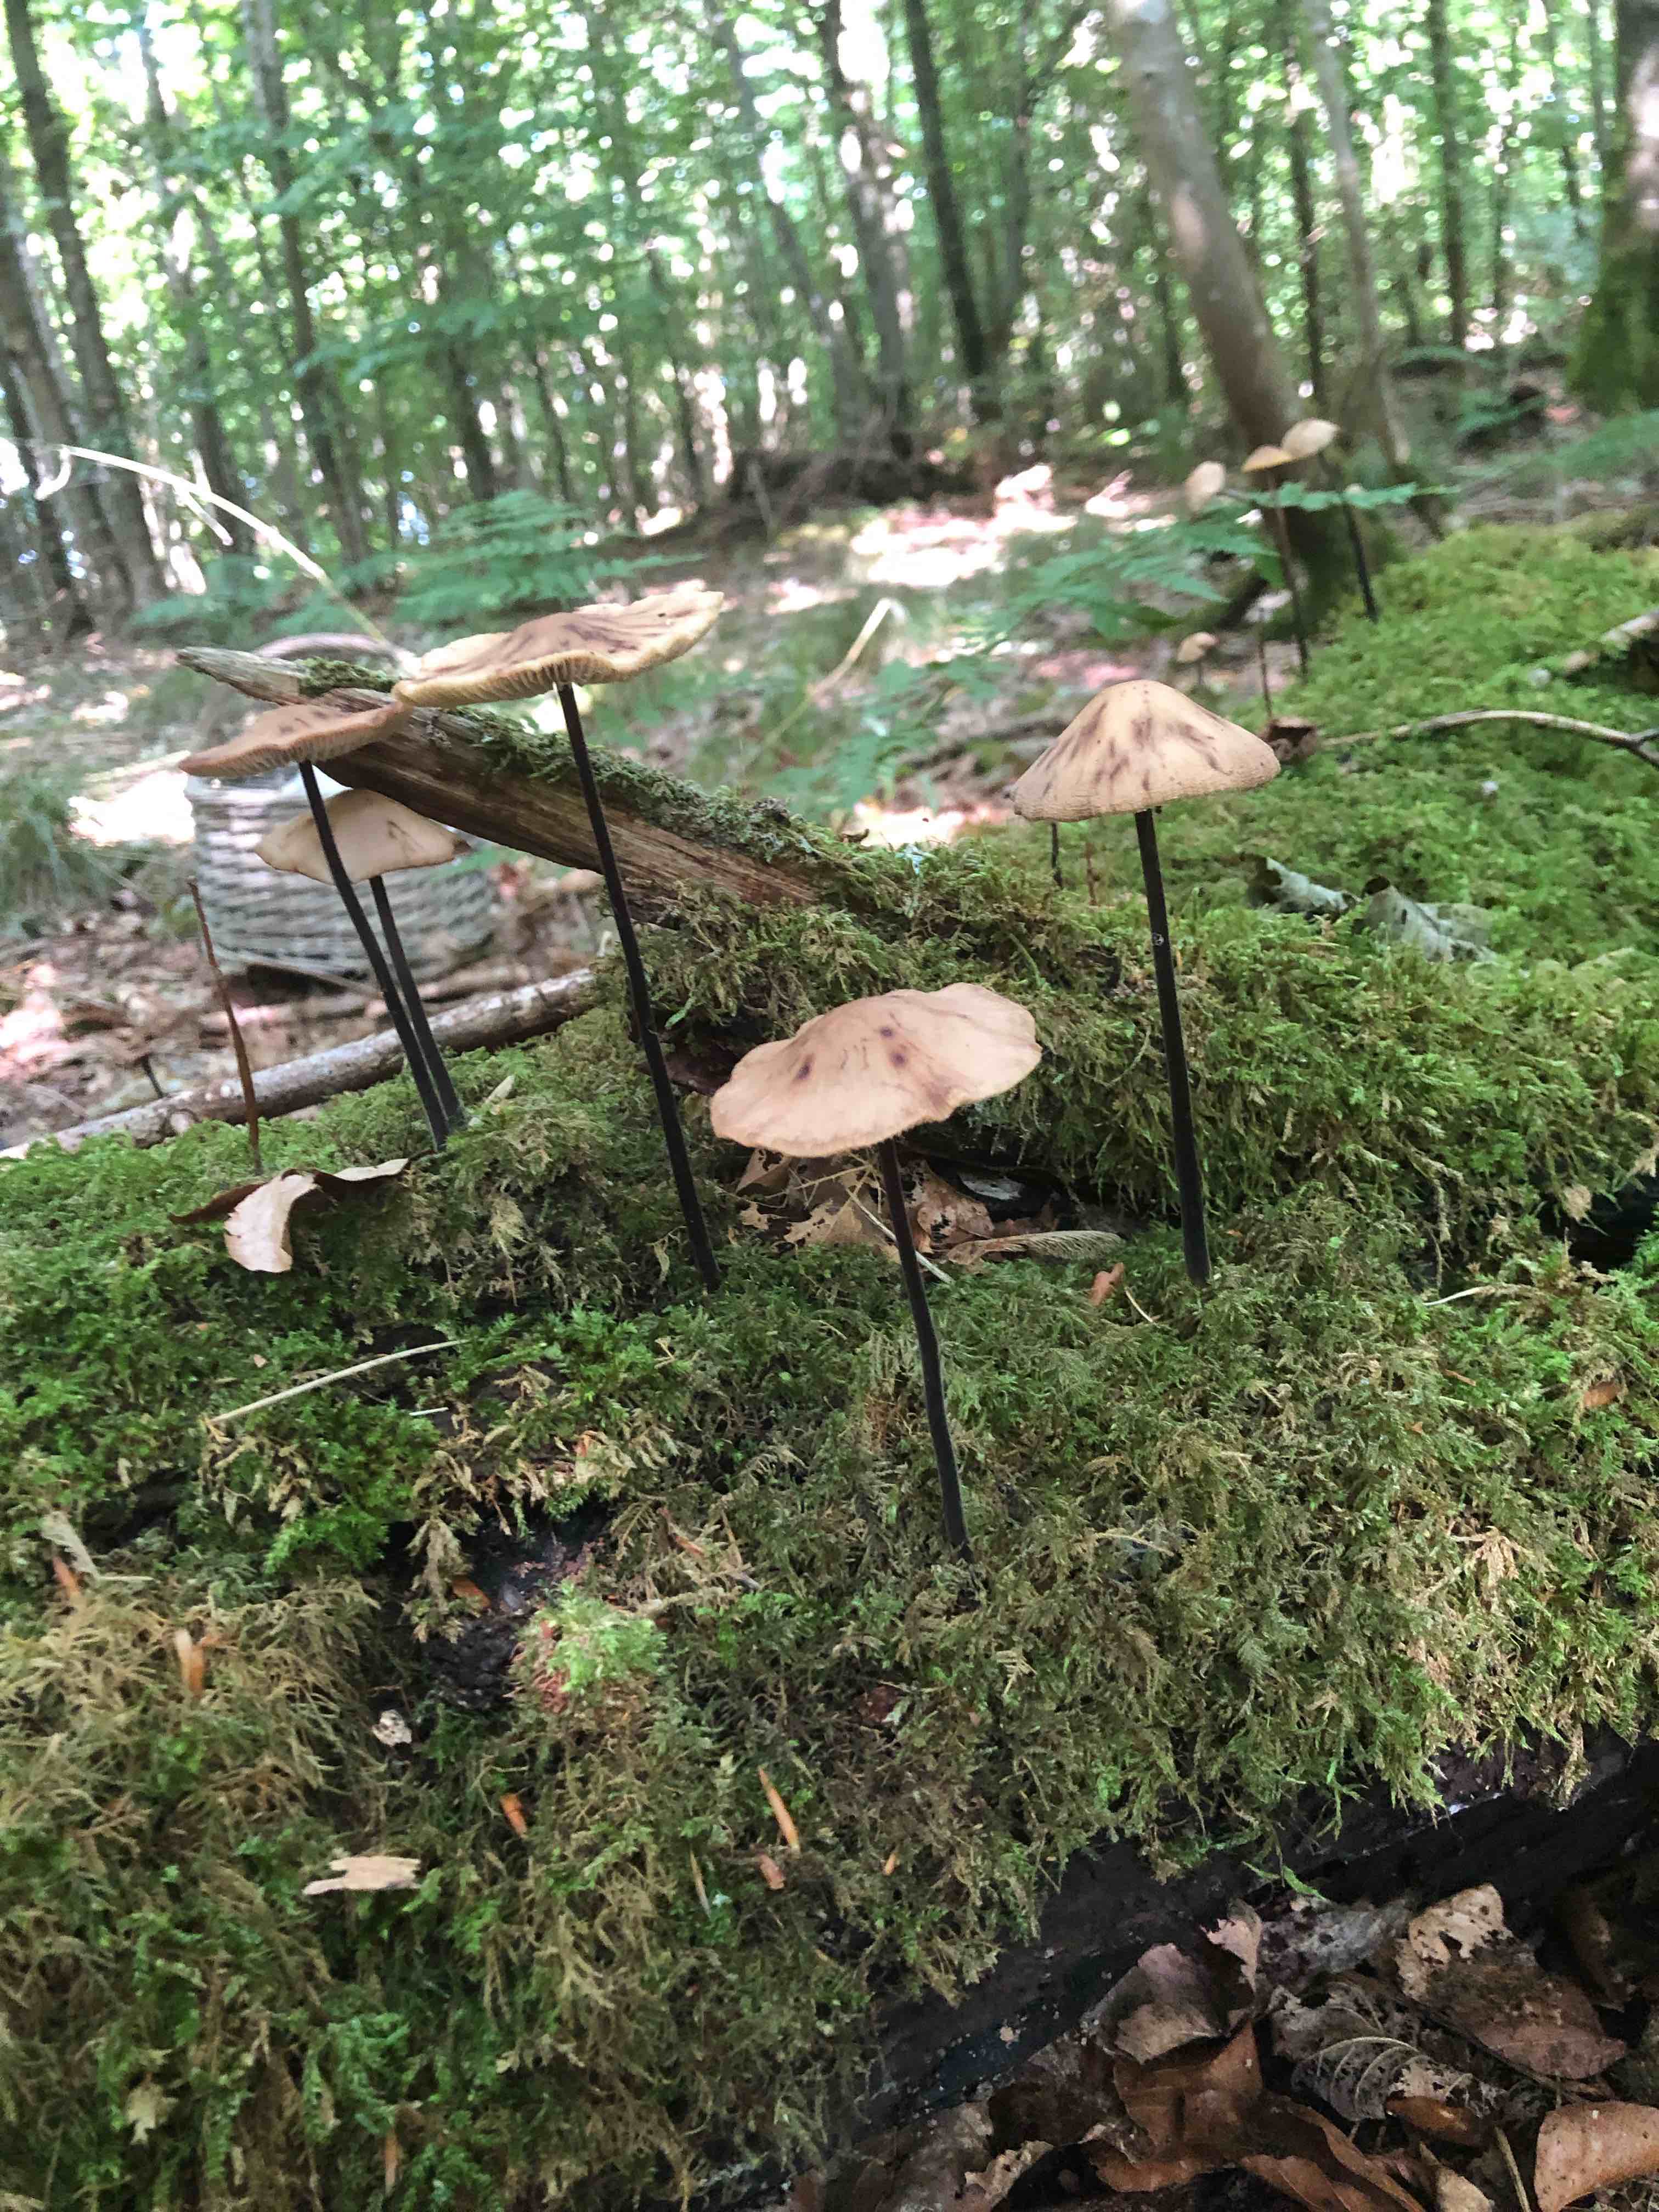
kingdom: Fungi
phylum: Basidiomycota
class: Agaricomycetes
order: Agaricales
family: Omphalotaceae
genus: Mycetinis
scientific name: Mycetinis alliaceus
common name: stor løghat
